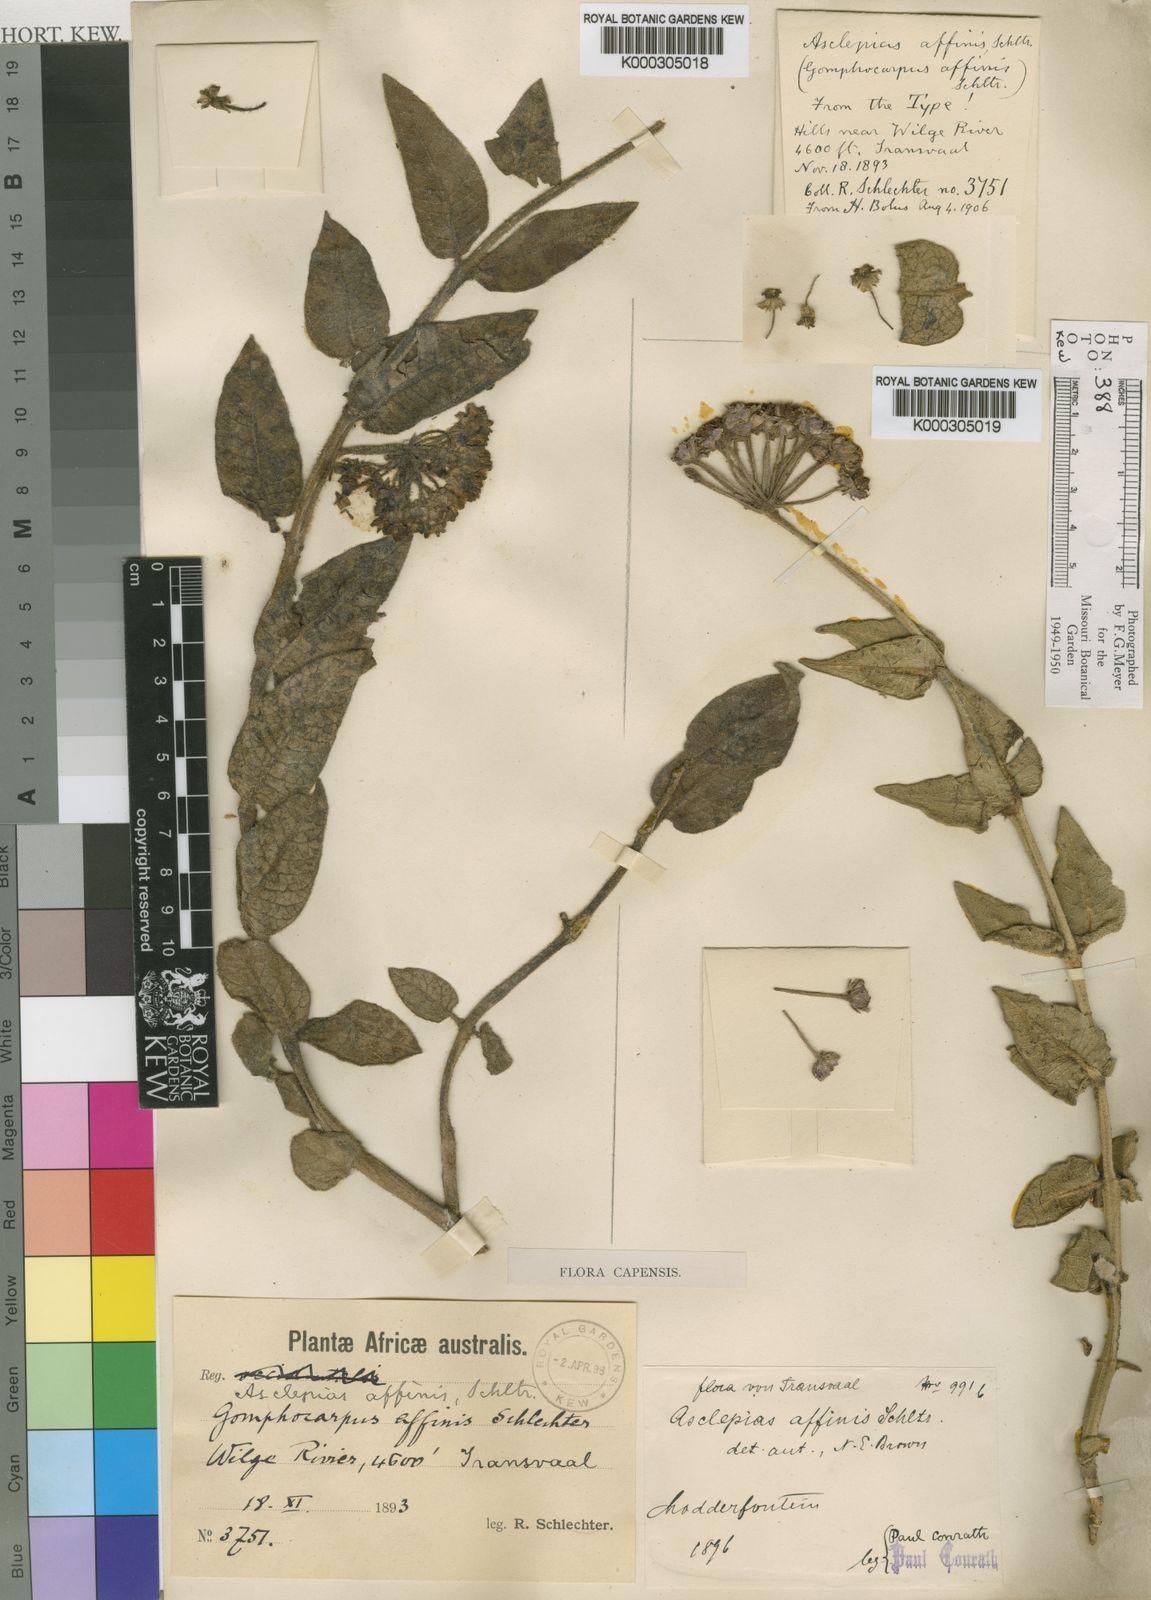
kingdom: Plantae
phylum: Tracheophyta
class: Magnoliopsida
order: Gentianales
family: Apocynaceae
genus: Asclepias
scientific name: Asclepias albens
